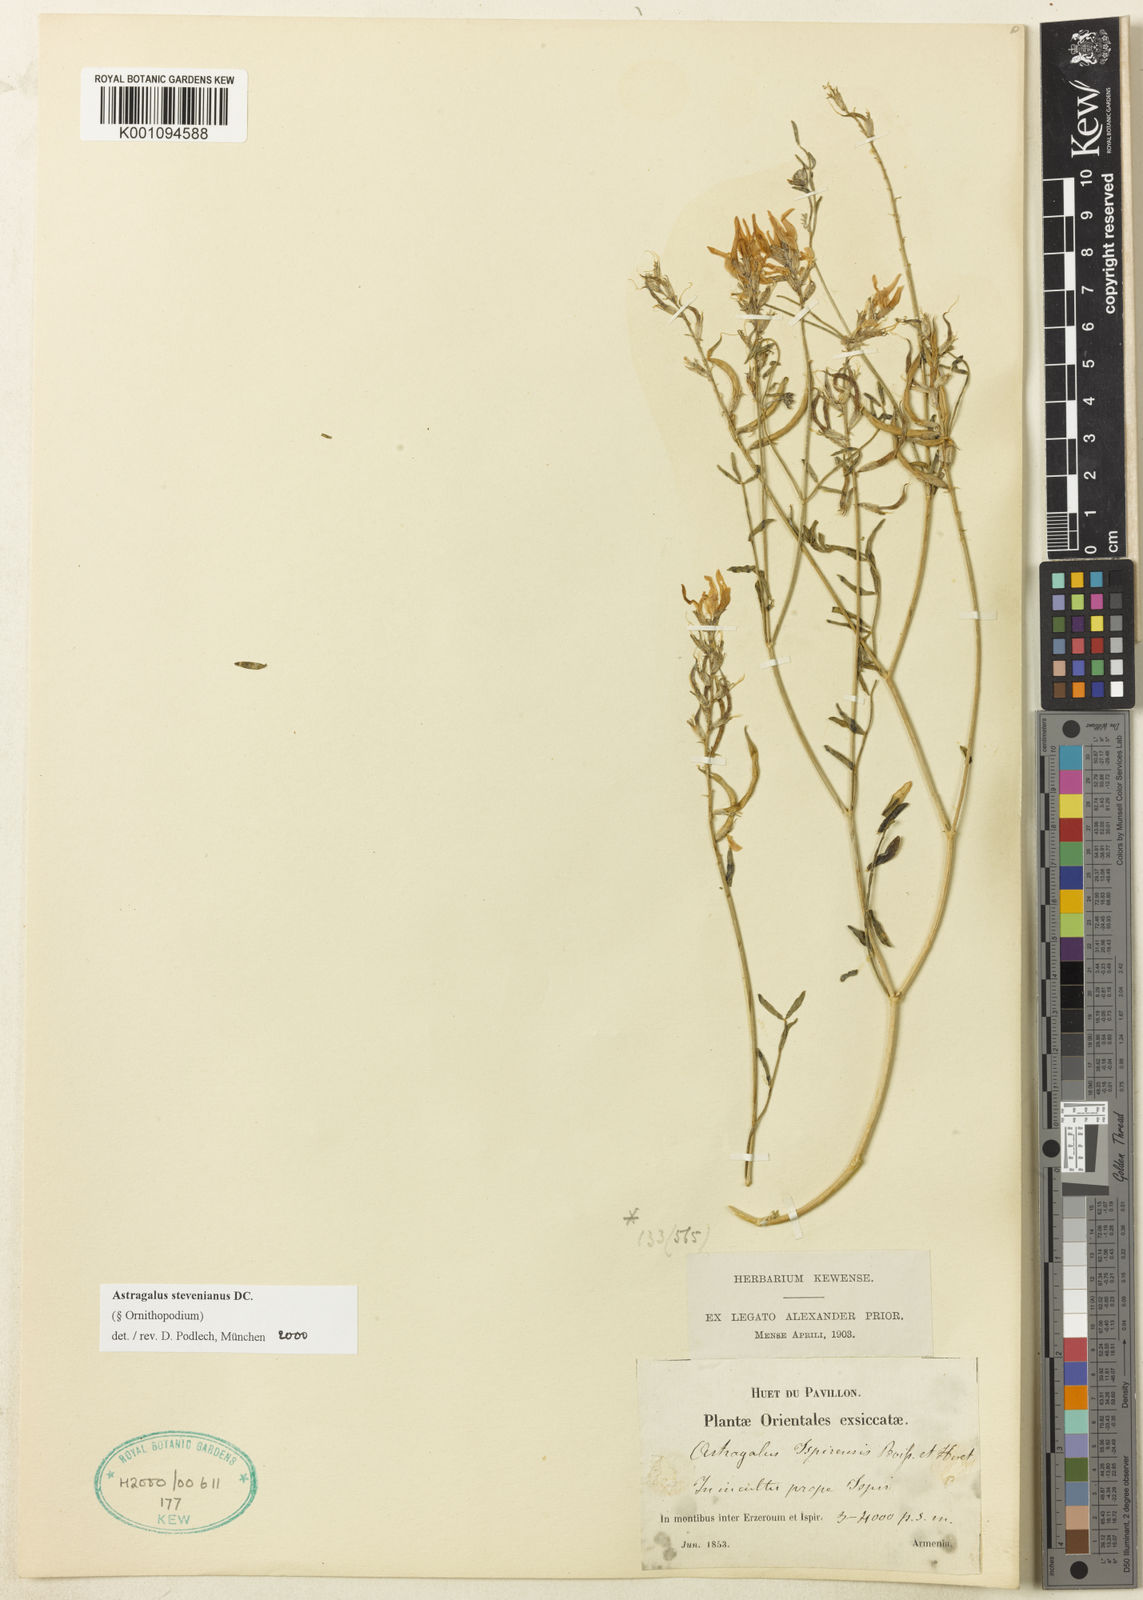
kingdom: Plantae
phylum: Tracheophyta
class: Magnoliopsida
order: Fabales
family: Fabaceae
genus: Astragalus
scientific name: Astragalus
